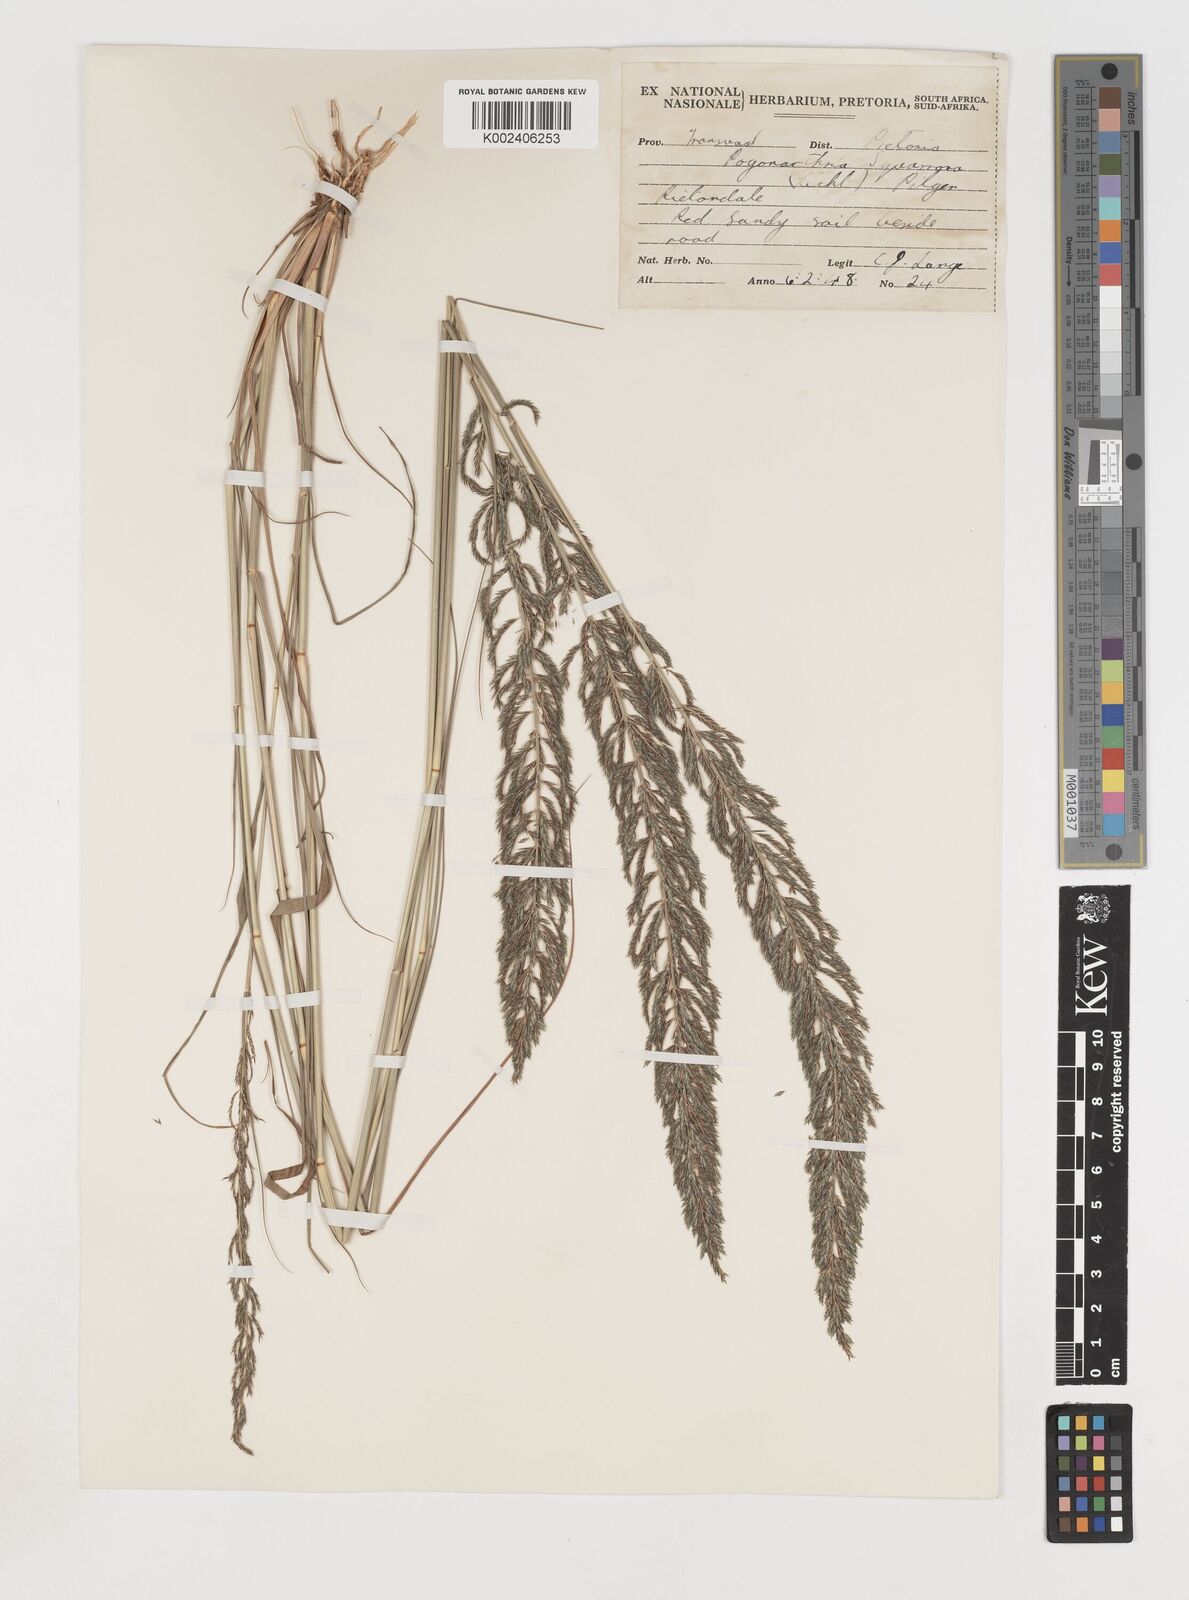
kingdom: Plantae
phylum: Tracheophyta
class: Liliopsida
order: Poales
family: Poaceae
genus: Pogonarthria
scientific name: Pogonarthria squarrosa
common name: Grass
